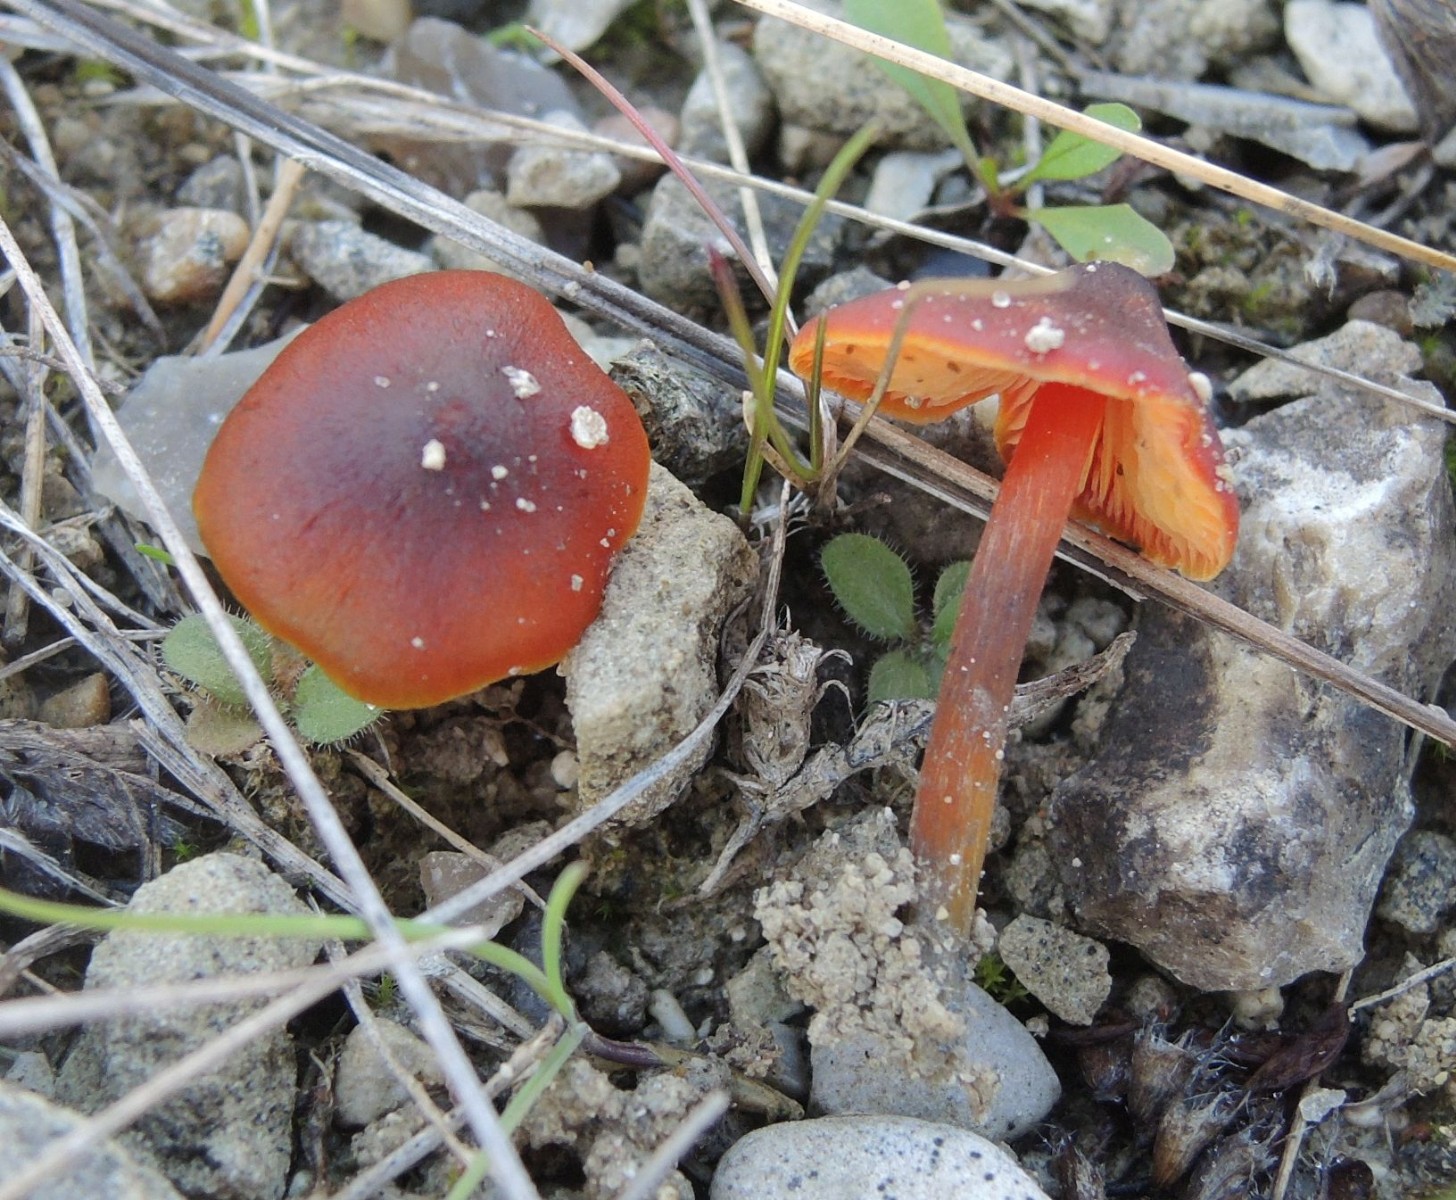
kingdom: Fungi
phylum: Basidiomycota
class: Agaricomycetes
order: Agaricales
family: Hygrophoraceae
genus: Hygrocybe
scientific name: Hygrocybe conica
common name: kegle-vokshat
